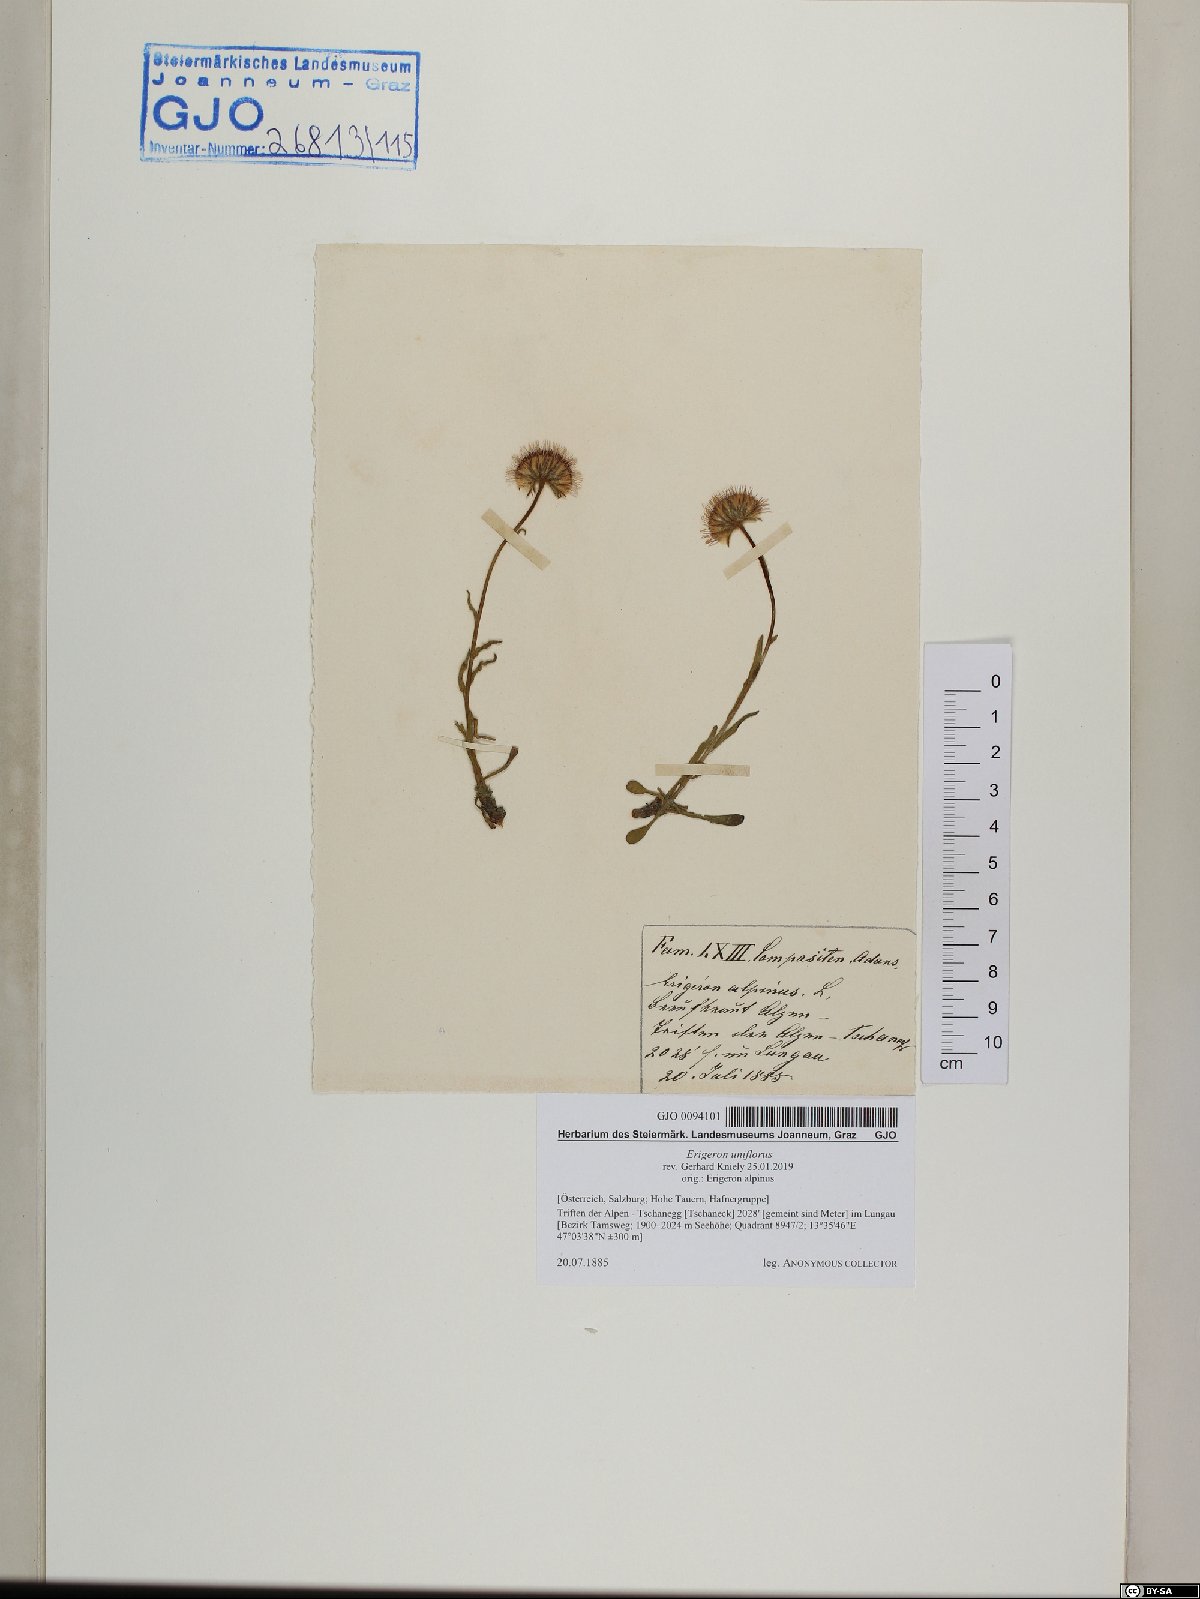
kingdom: Plantae
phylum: Tracheophyta
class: Magnoliopsida
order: Asterales
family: Asteraceae
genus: Erigeron
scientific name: Erigeron uniflorus
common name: Northern daisy
